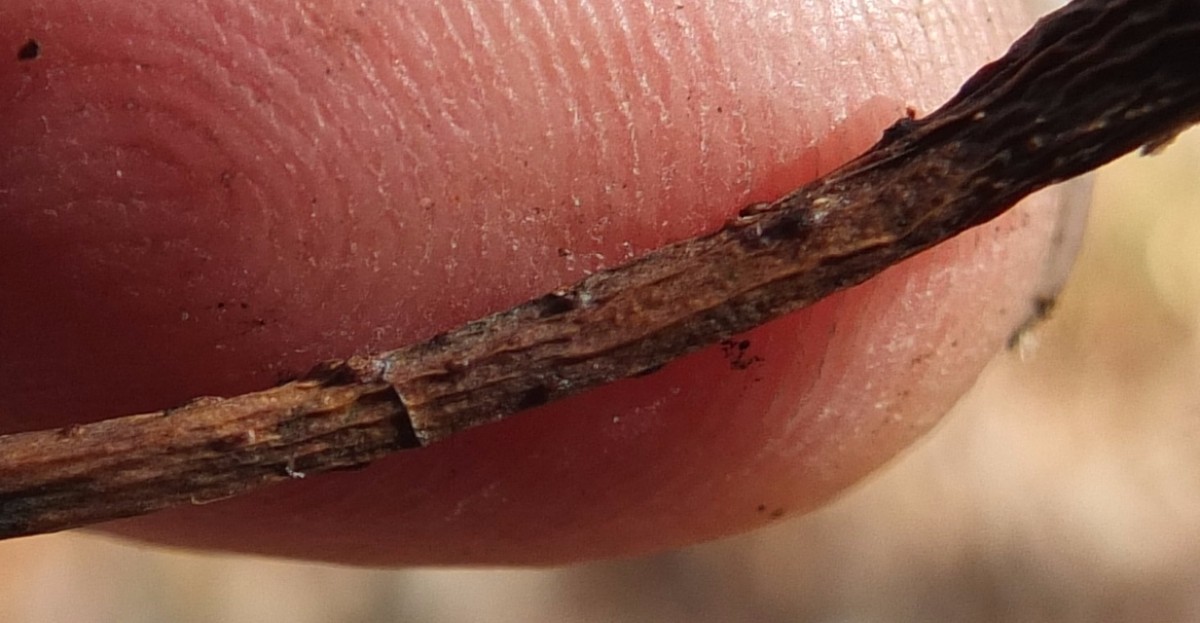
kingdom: Fungi
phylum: Ascomycota
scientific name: Ascomycota
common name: sæksvampe
